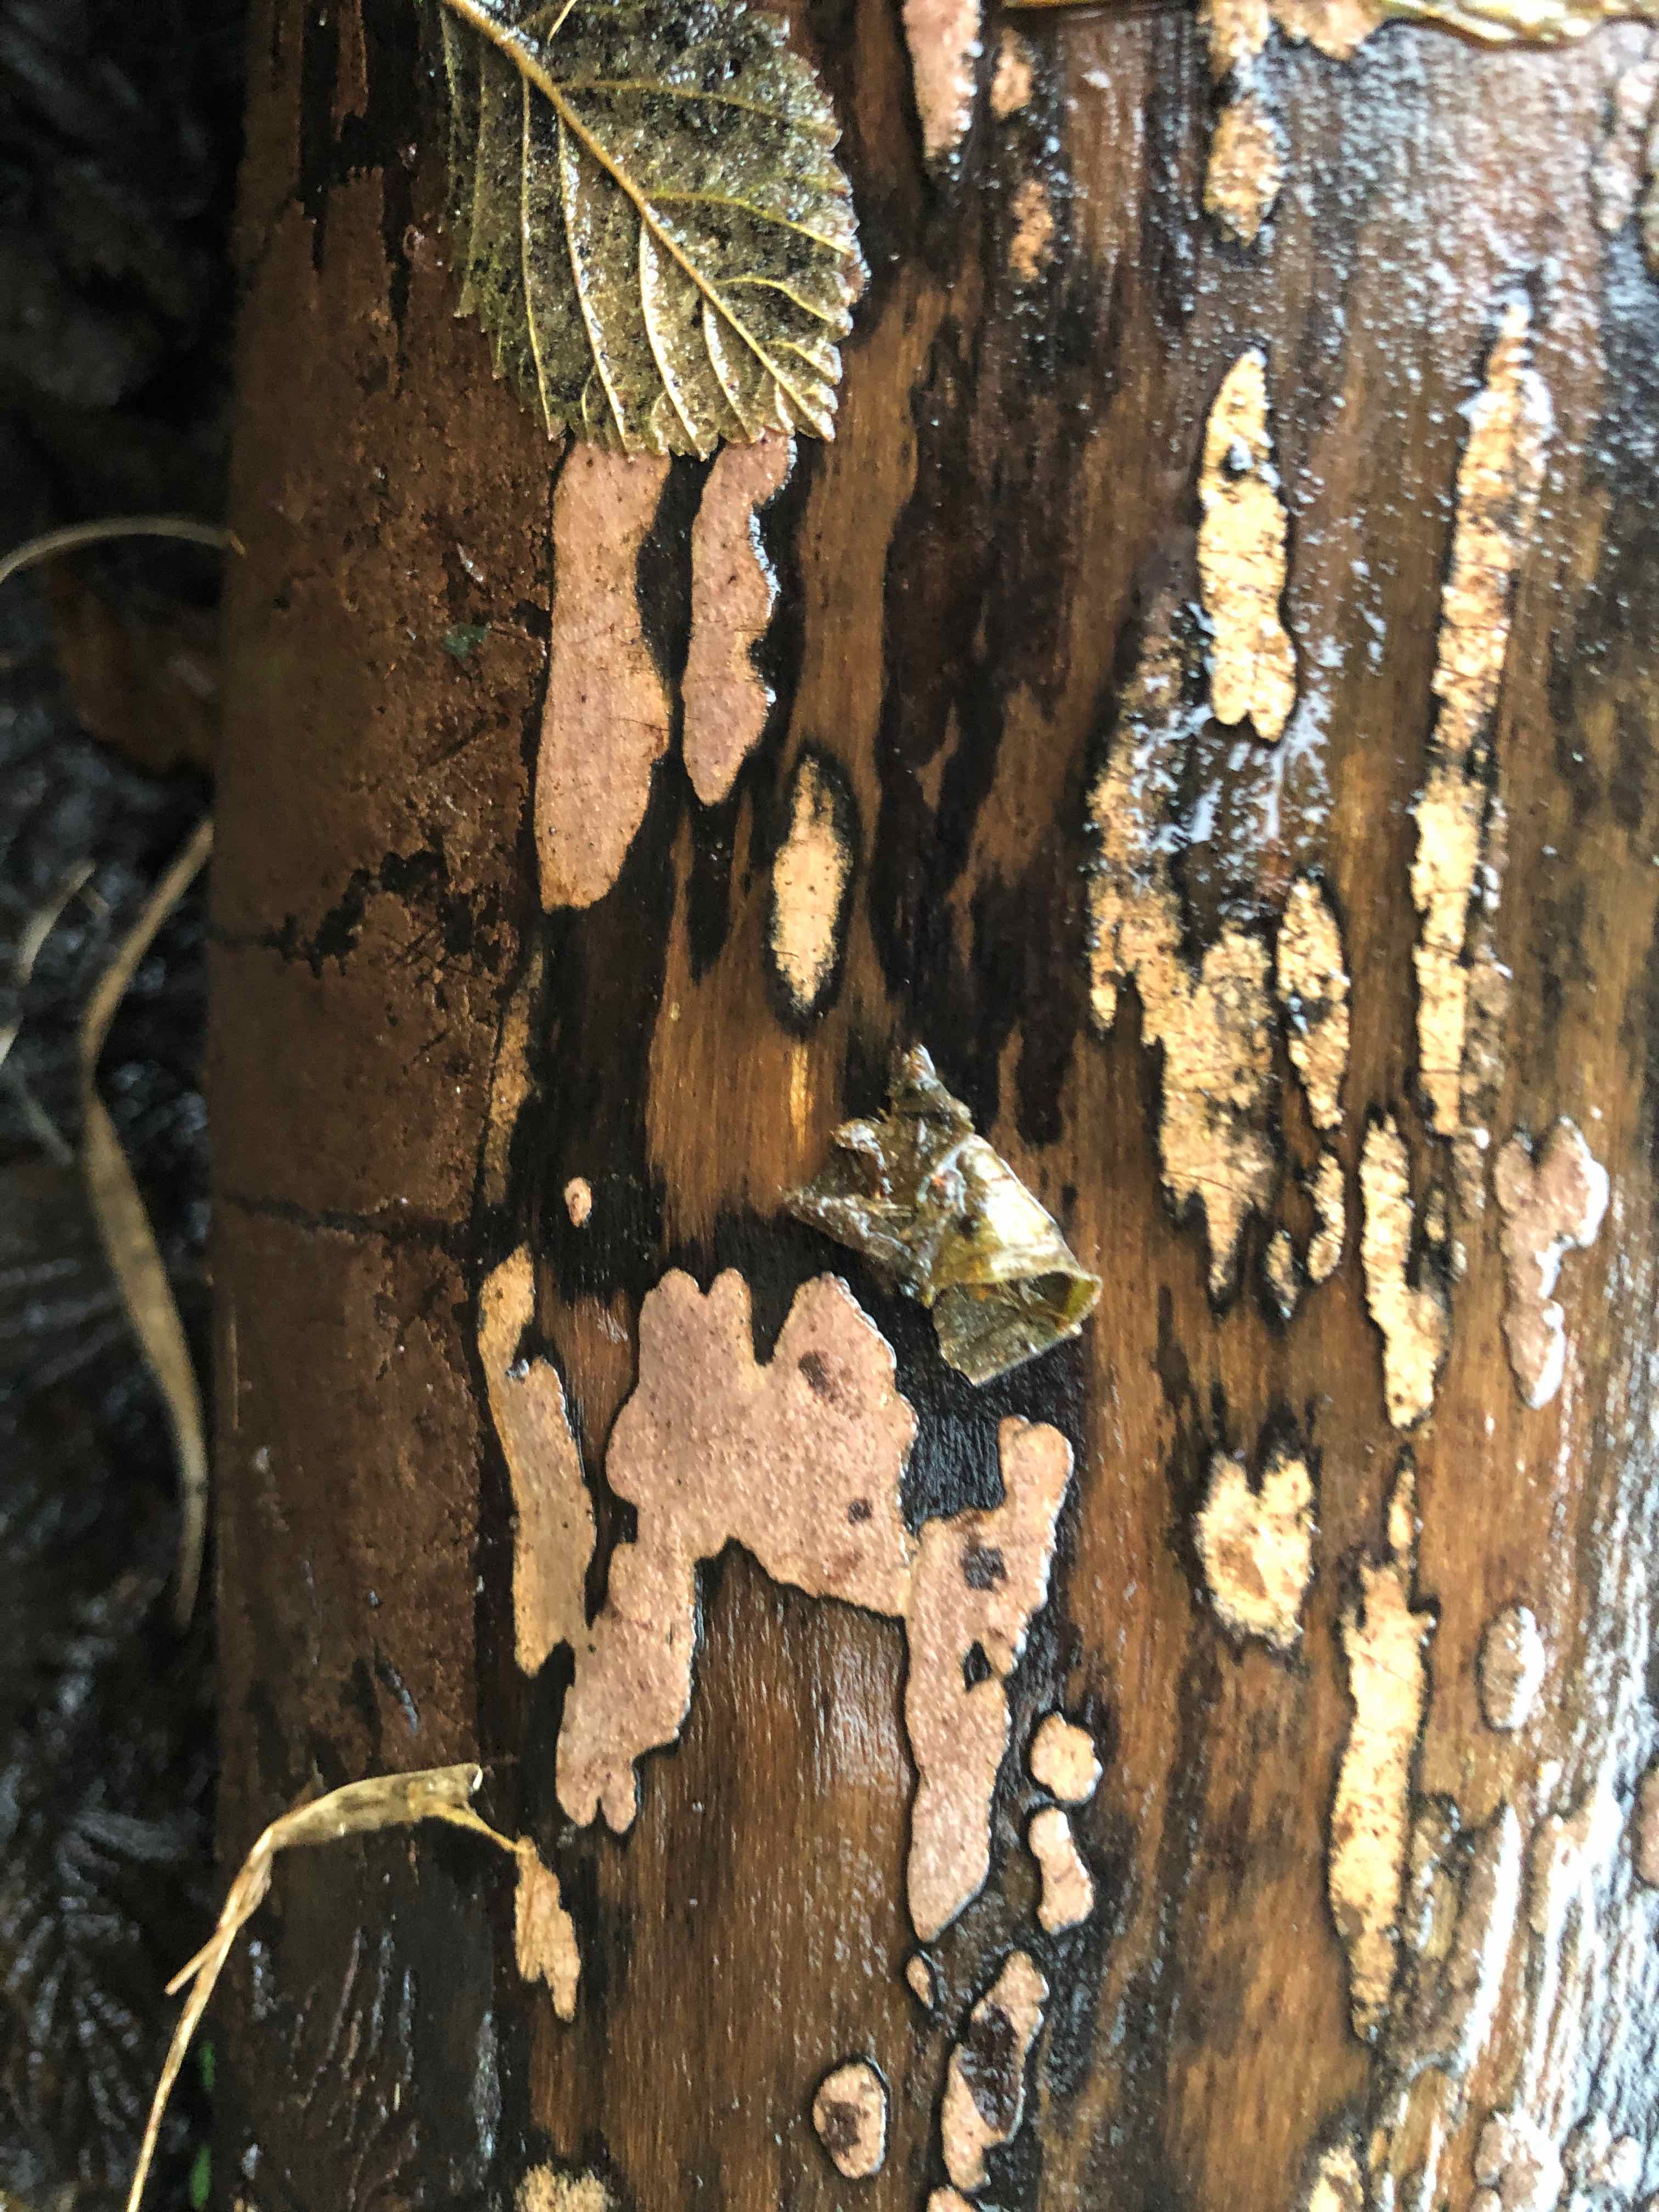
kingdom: Fungi
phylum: Ascomycota
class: Sordariomycetes
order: Xylariales
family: Hypoxylaceae
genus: Hypoxylon
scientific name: Hypoxylon petriniae
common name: nedsænket kulbær
